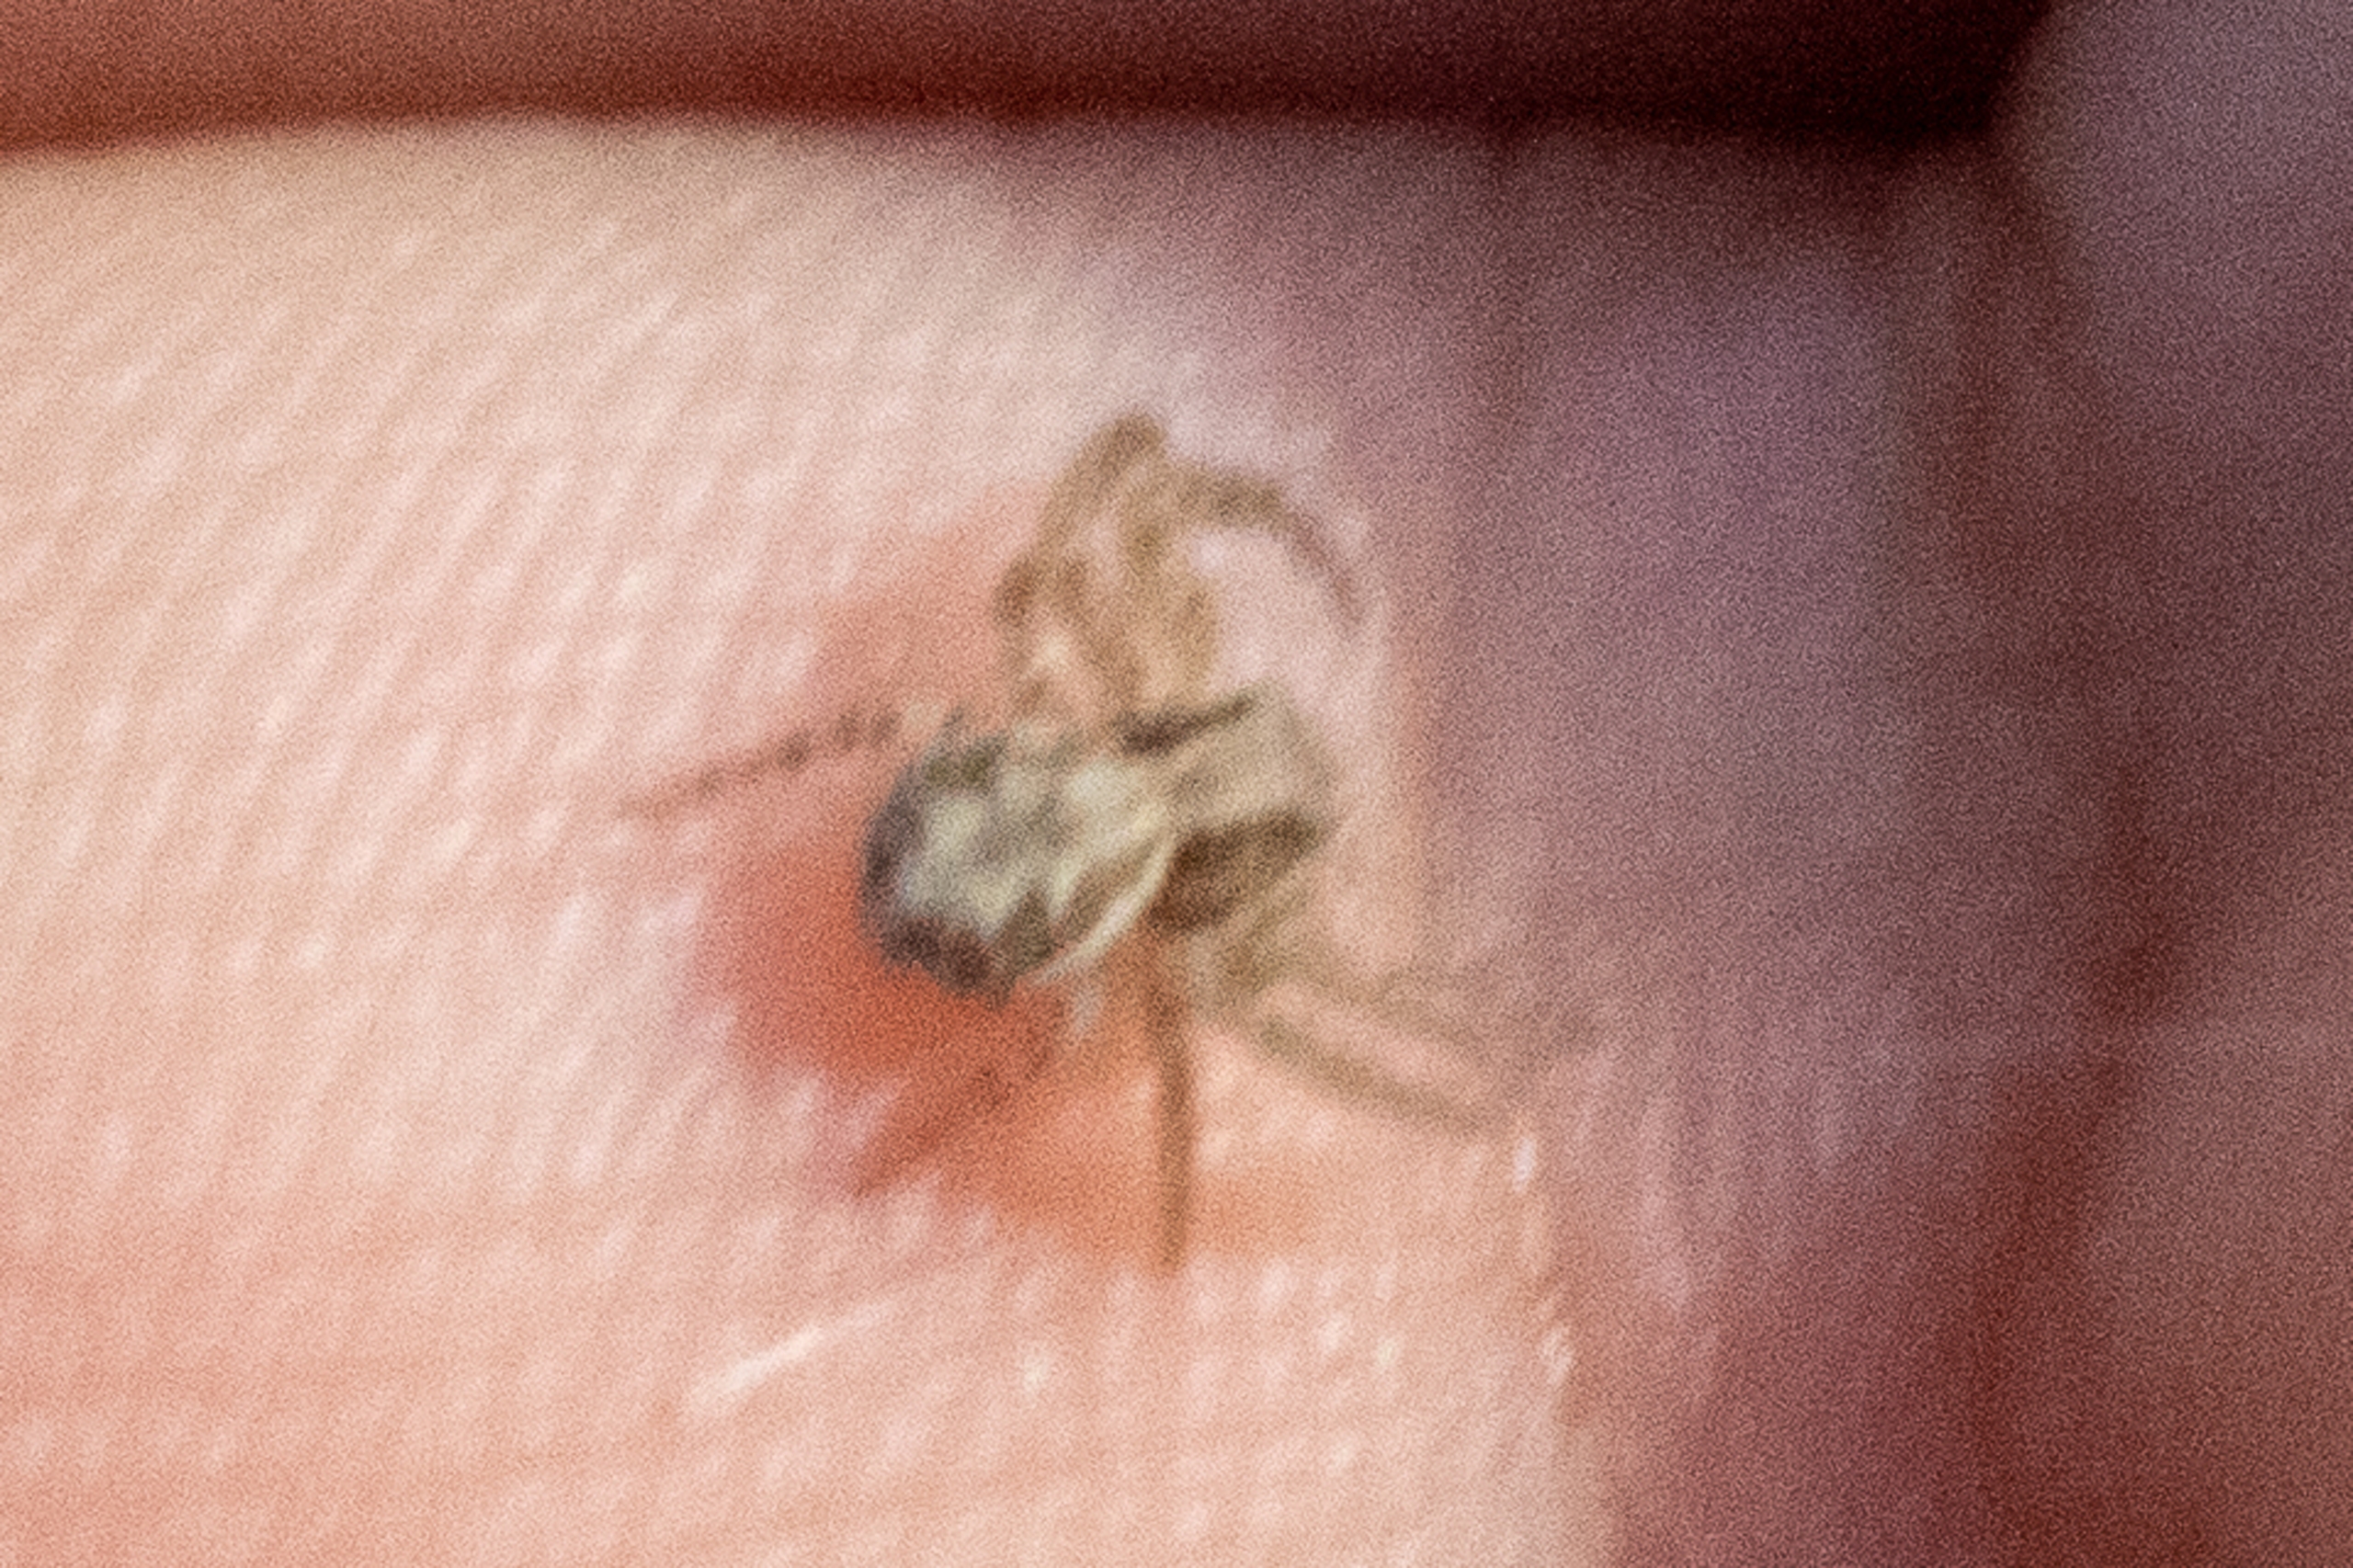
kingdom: Animalia
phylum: Arthropoda
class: Arachnida
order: Araneae
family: Thomisidae
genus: Xysticus
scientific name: Xysticus
